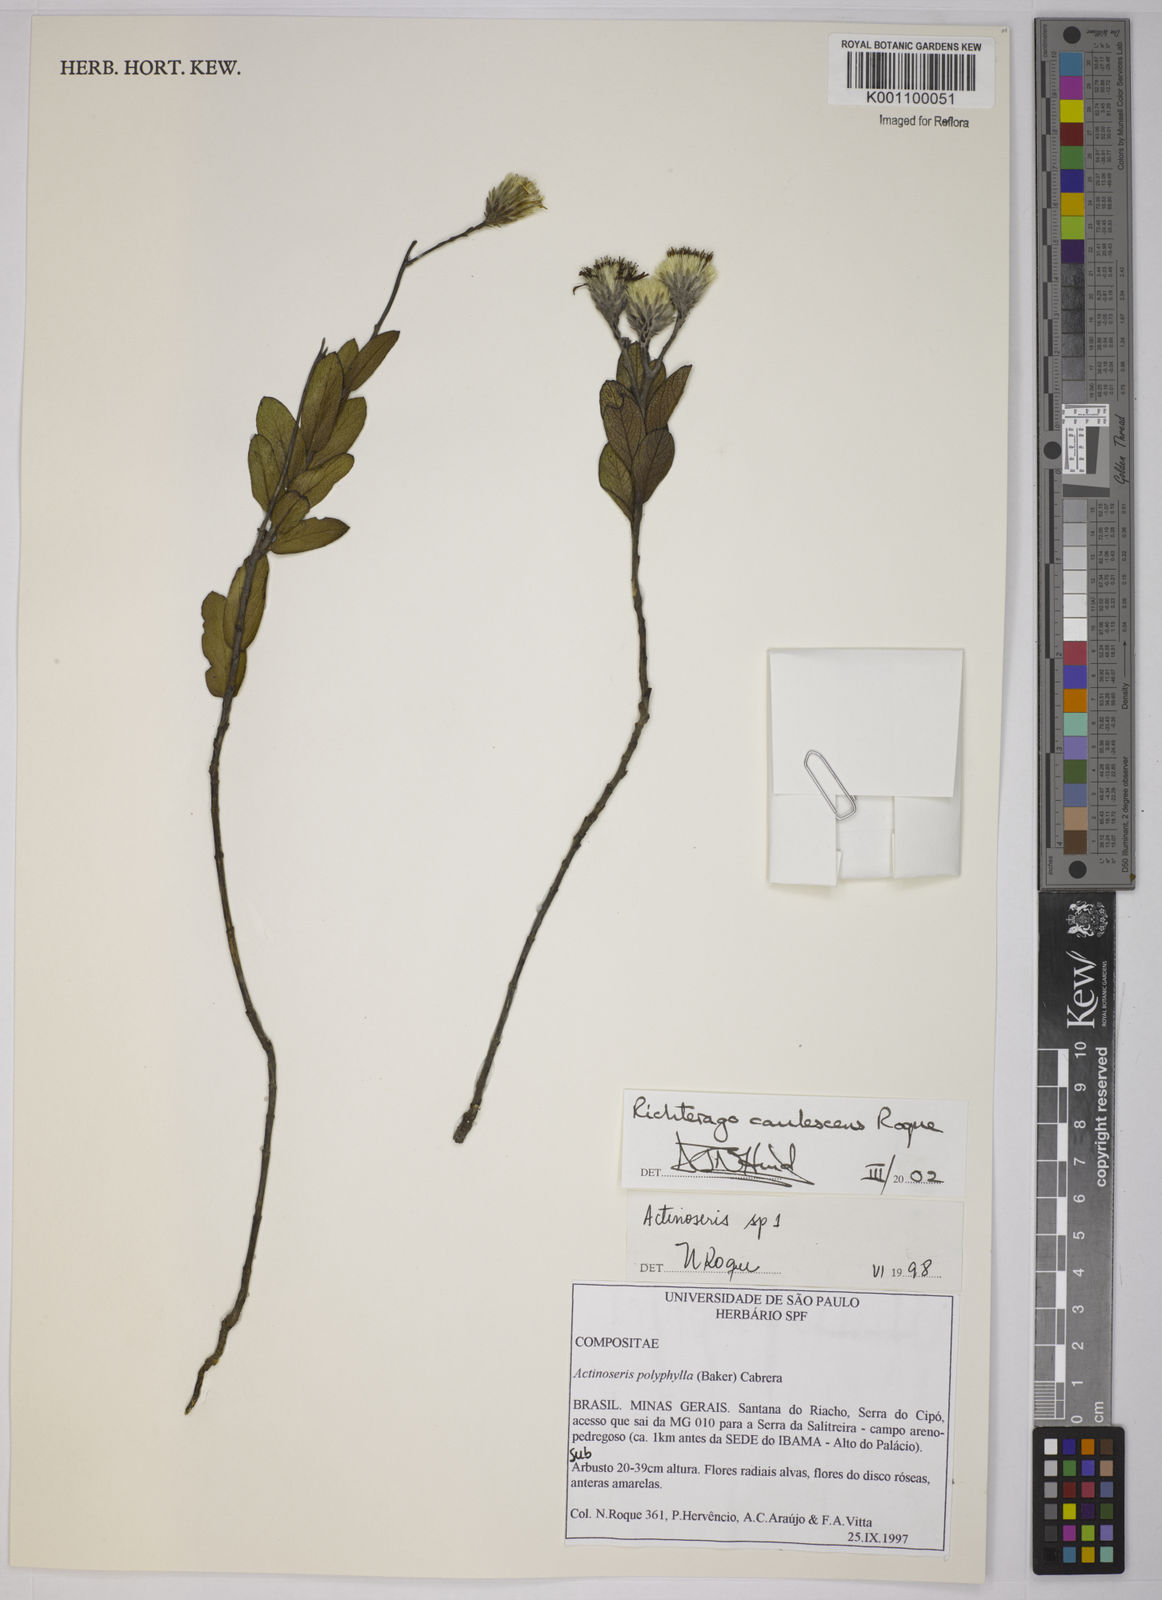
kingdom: Plantae
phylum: Tracheophyta
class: Magnoliopsida
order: Asterales
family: Asteraceae
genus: Richterago
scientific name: Richterago caulescens
